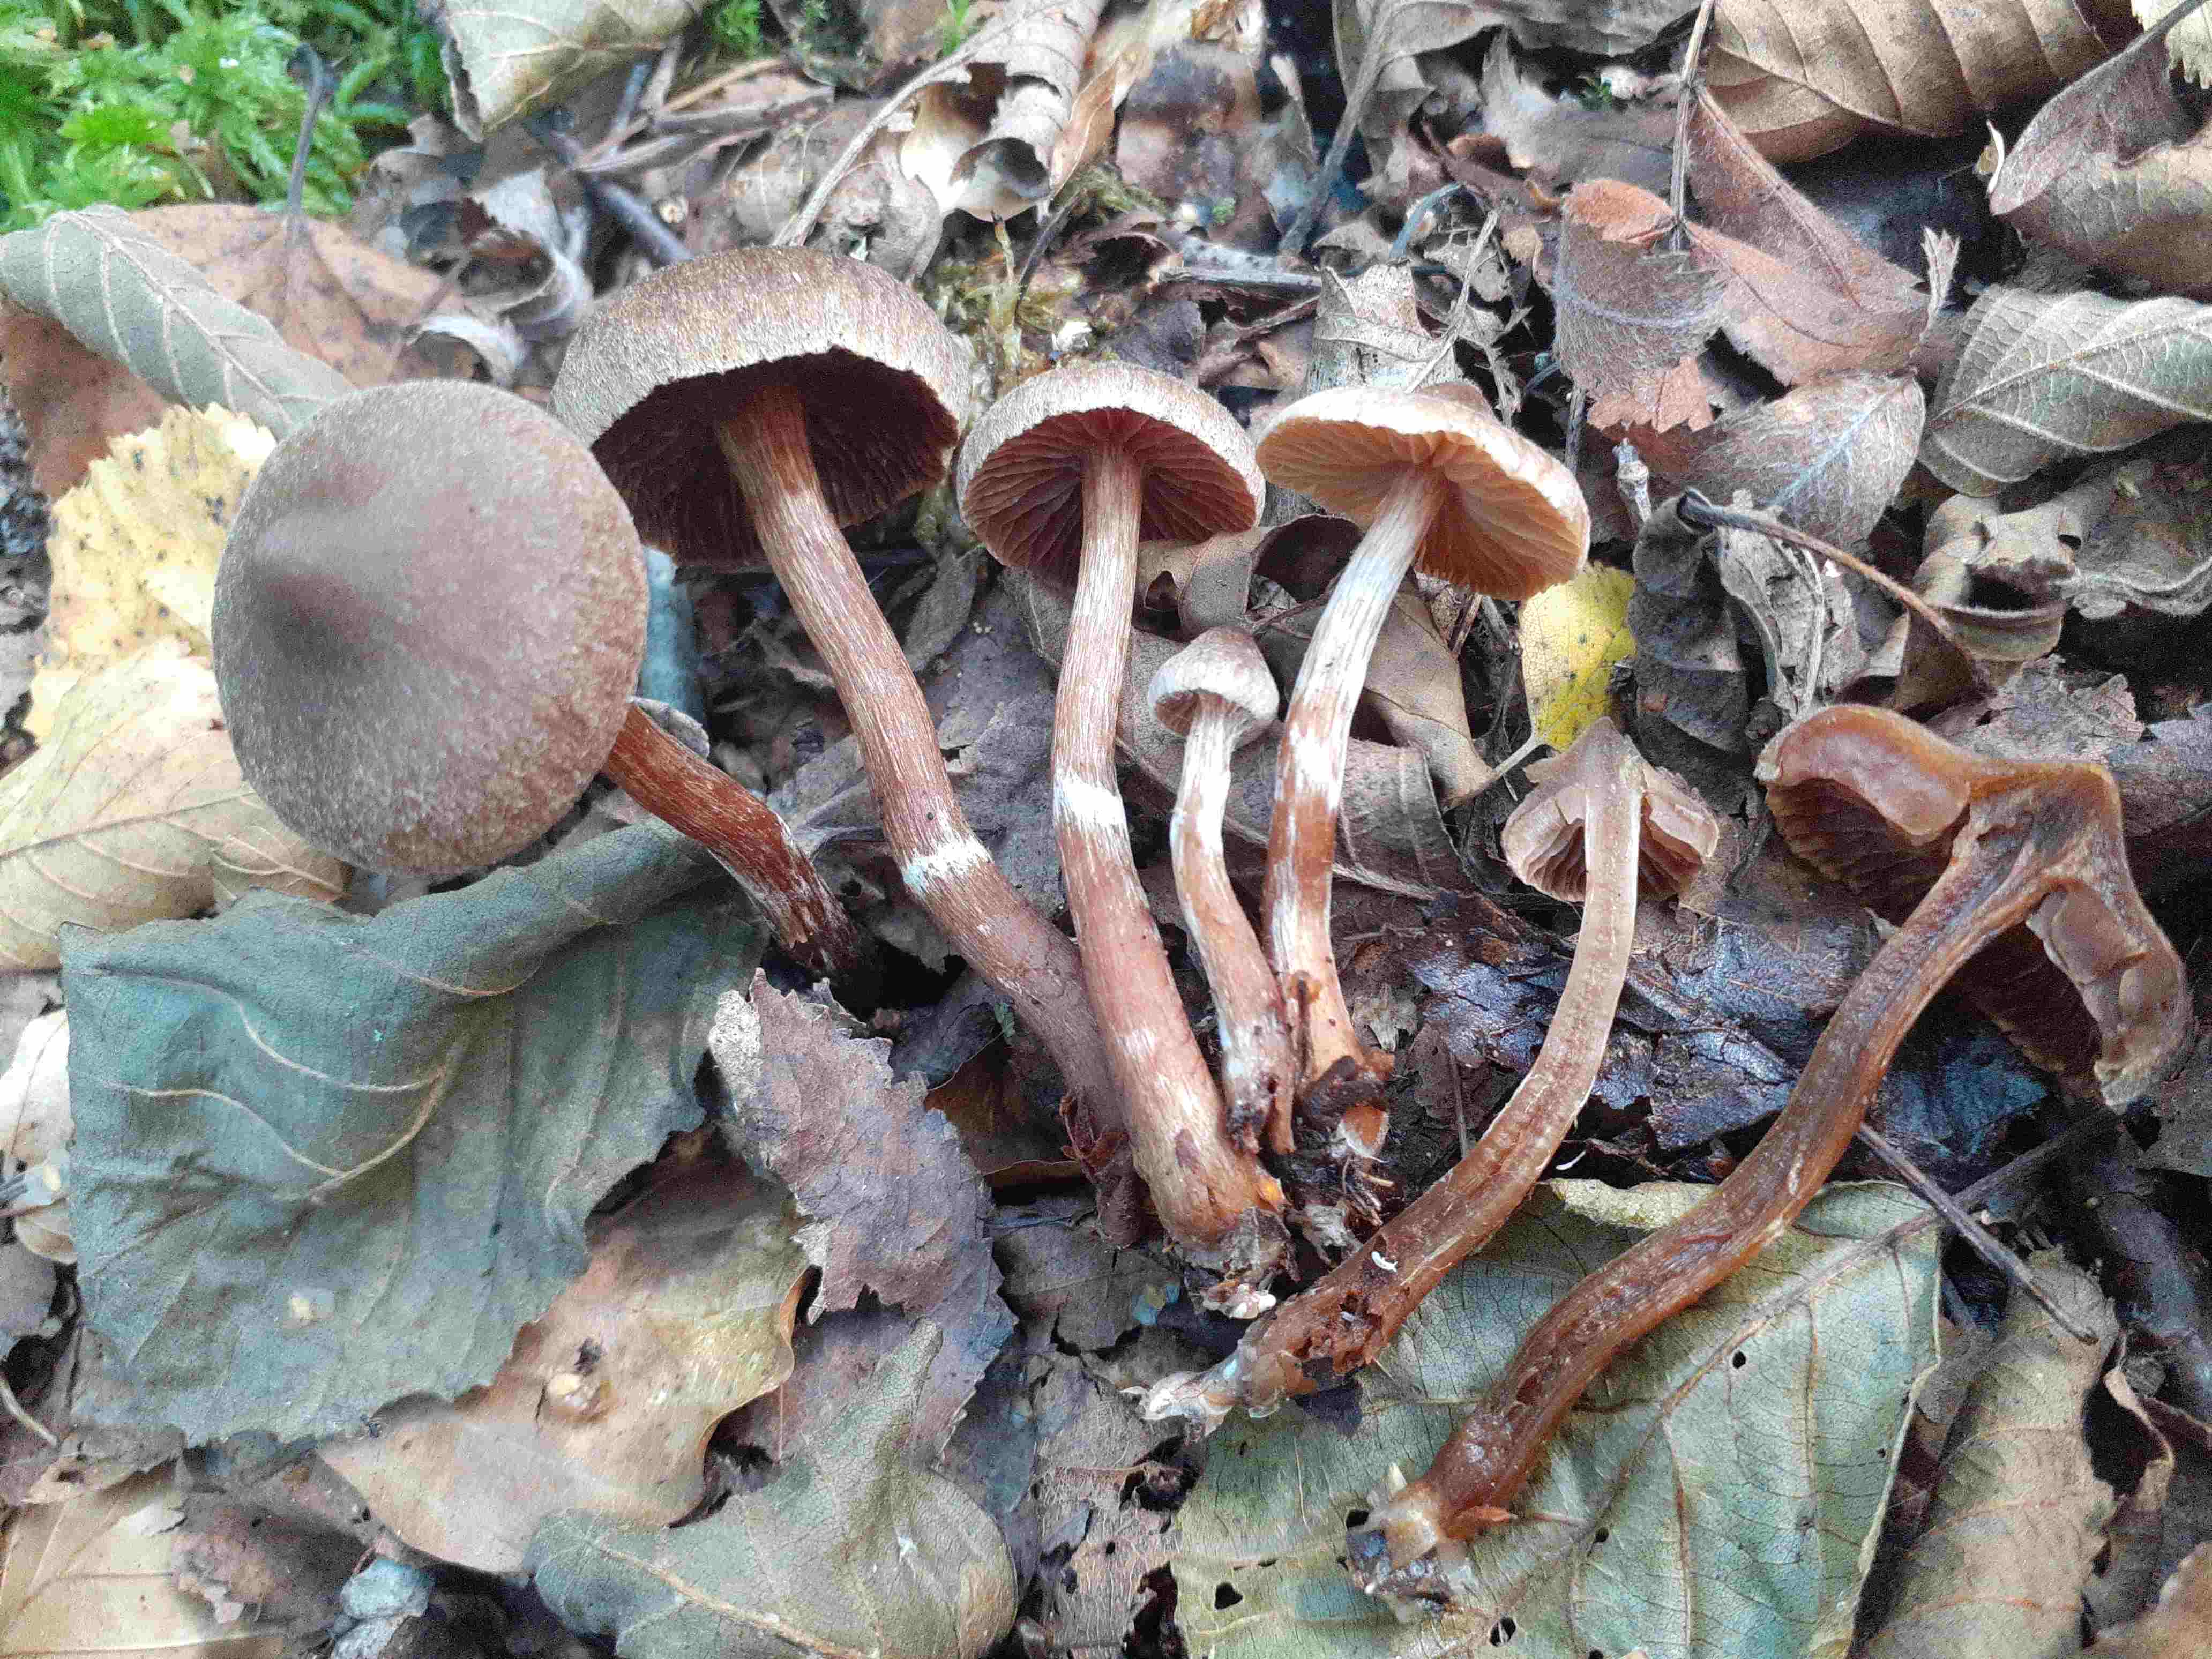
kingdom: Fungi
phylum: Basidiomycota
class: Agaricomycetes
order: Agaricales
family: Cortinariaceae
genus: Cortinarius
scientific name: Cortinarius nigrocuspidatus
